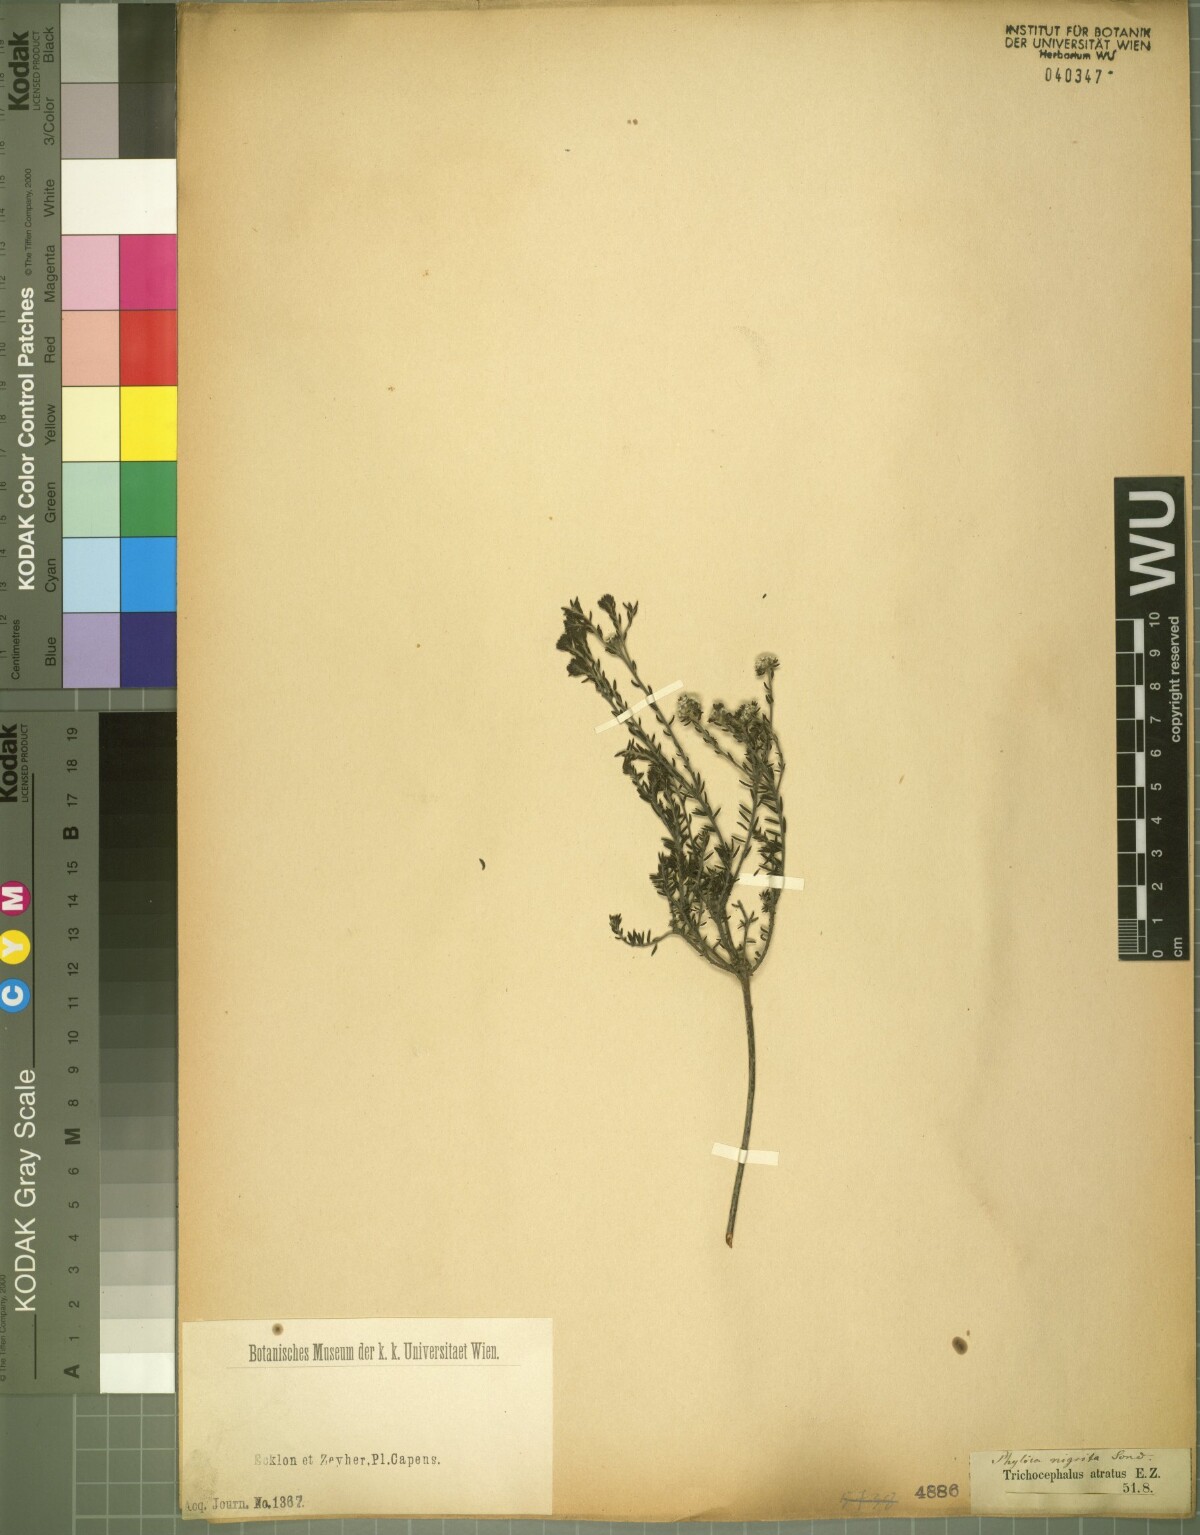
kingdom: Plantae
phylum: Tracheophyta
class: Magnoliopsida
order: Rosales
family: Rhamnaceae
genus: Phylica
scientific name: Phylica atrata
